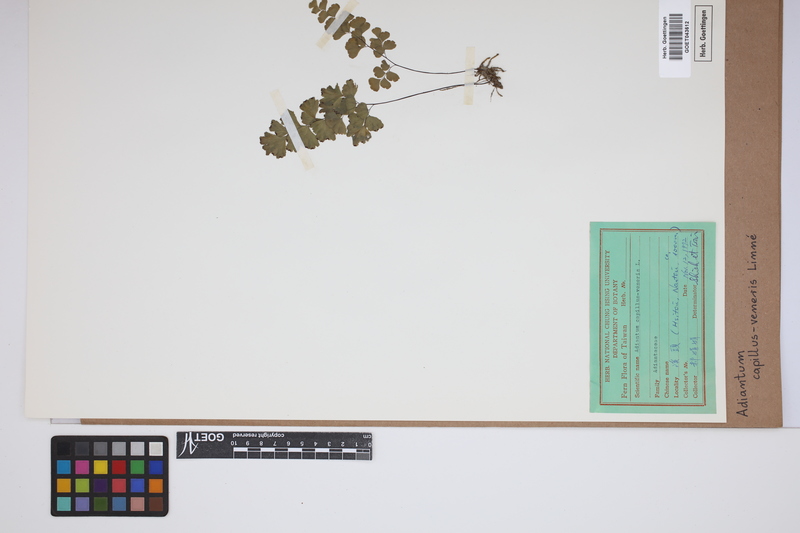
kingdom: Plantae
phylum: Tracheophyta
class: Polypodiopsida
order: Polypodiales
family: Pteridaceae
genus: Adiantum
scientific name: Adiantum capillus-veneris
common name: Maidenhair fern
